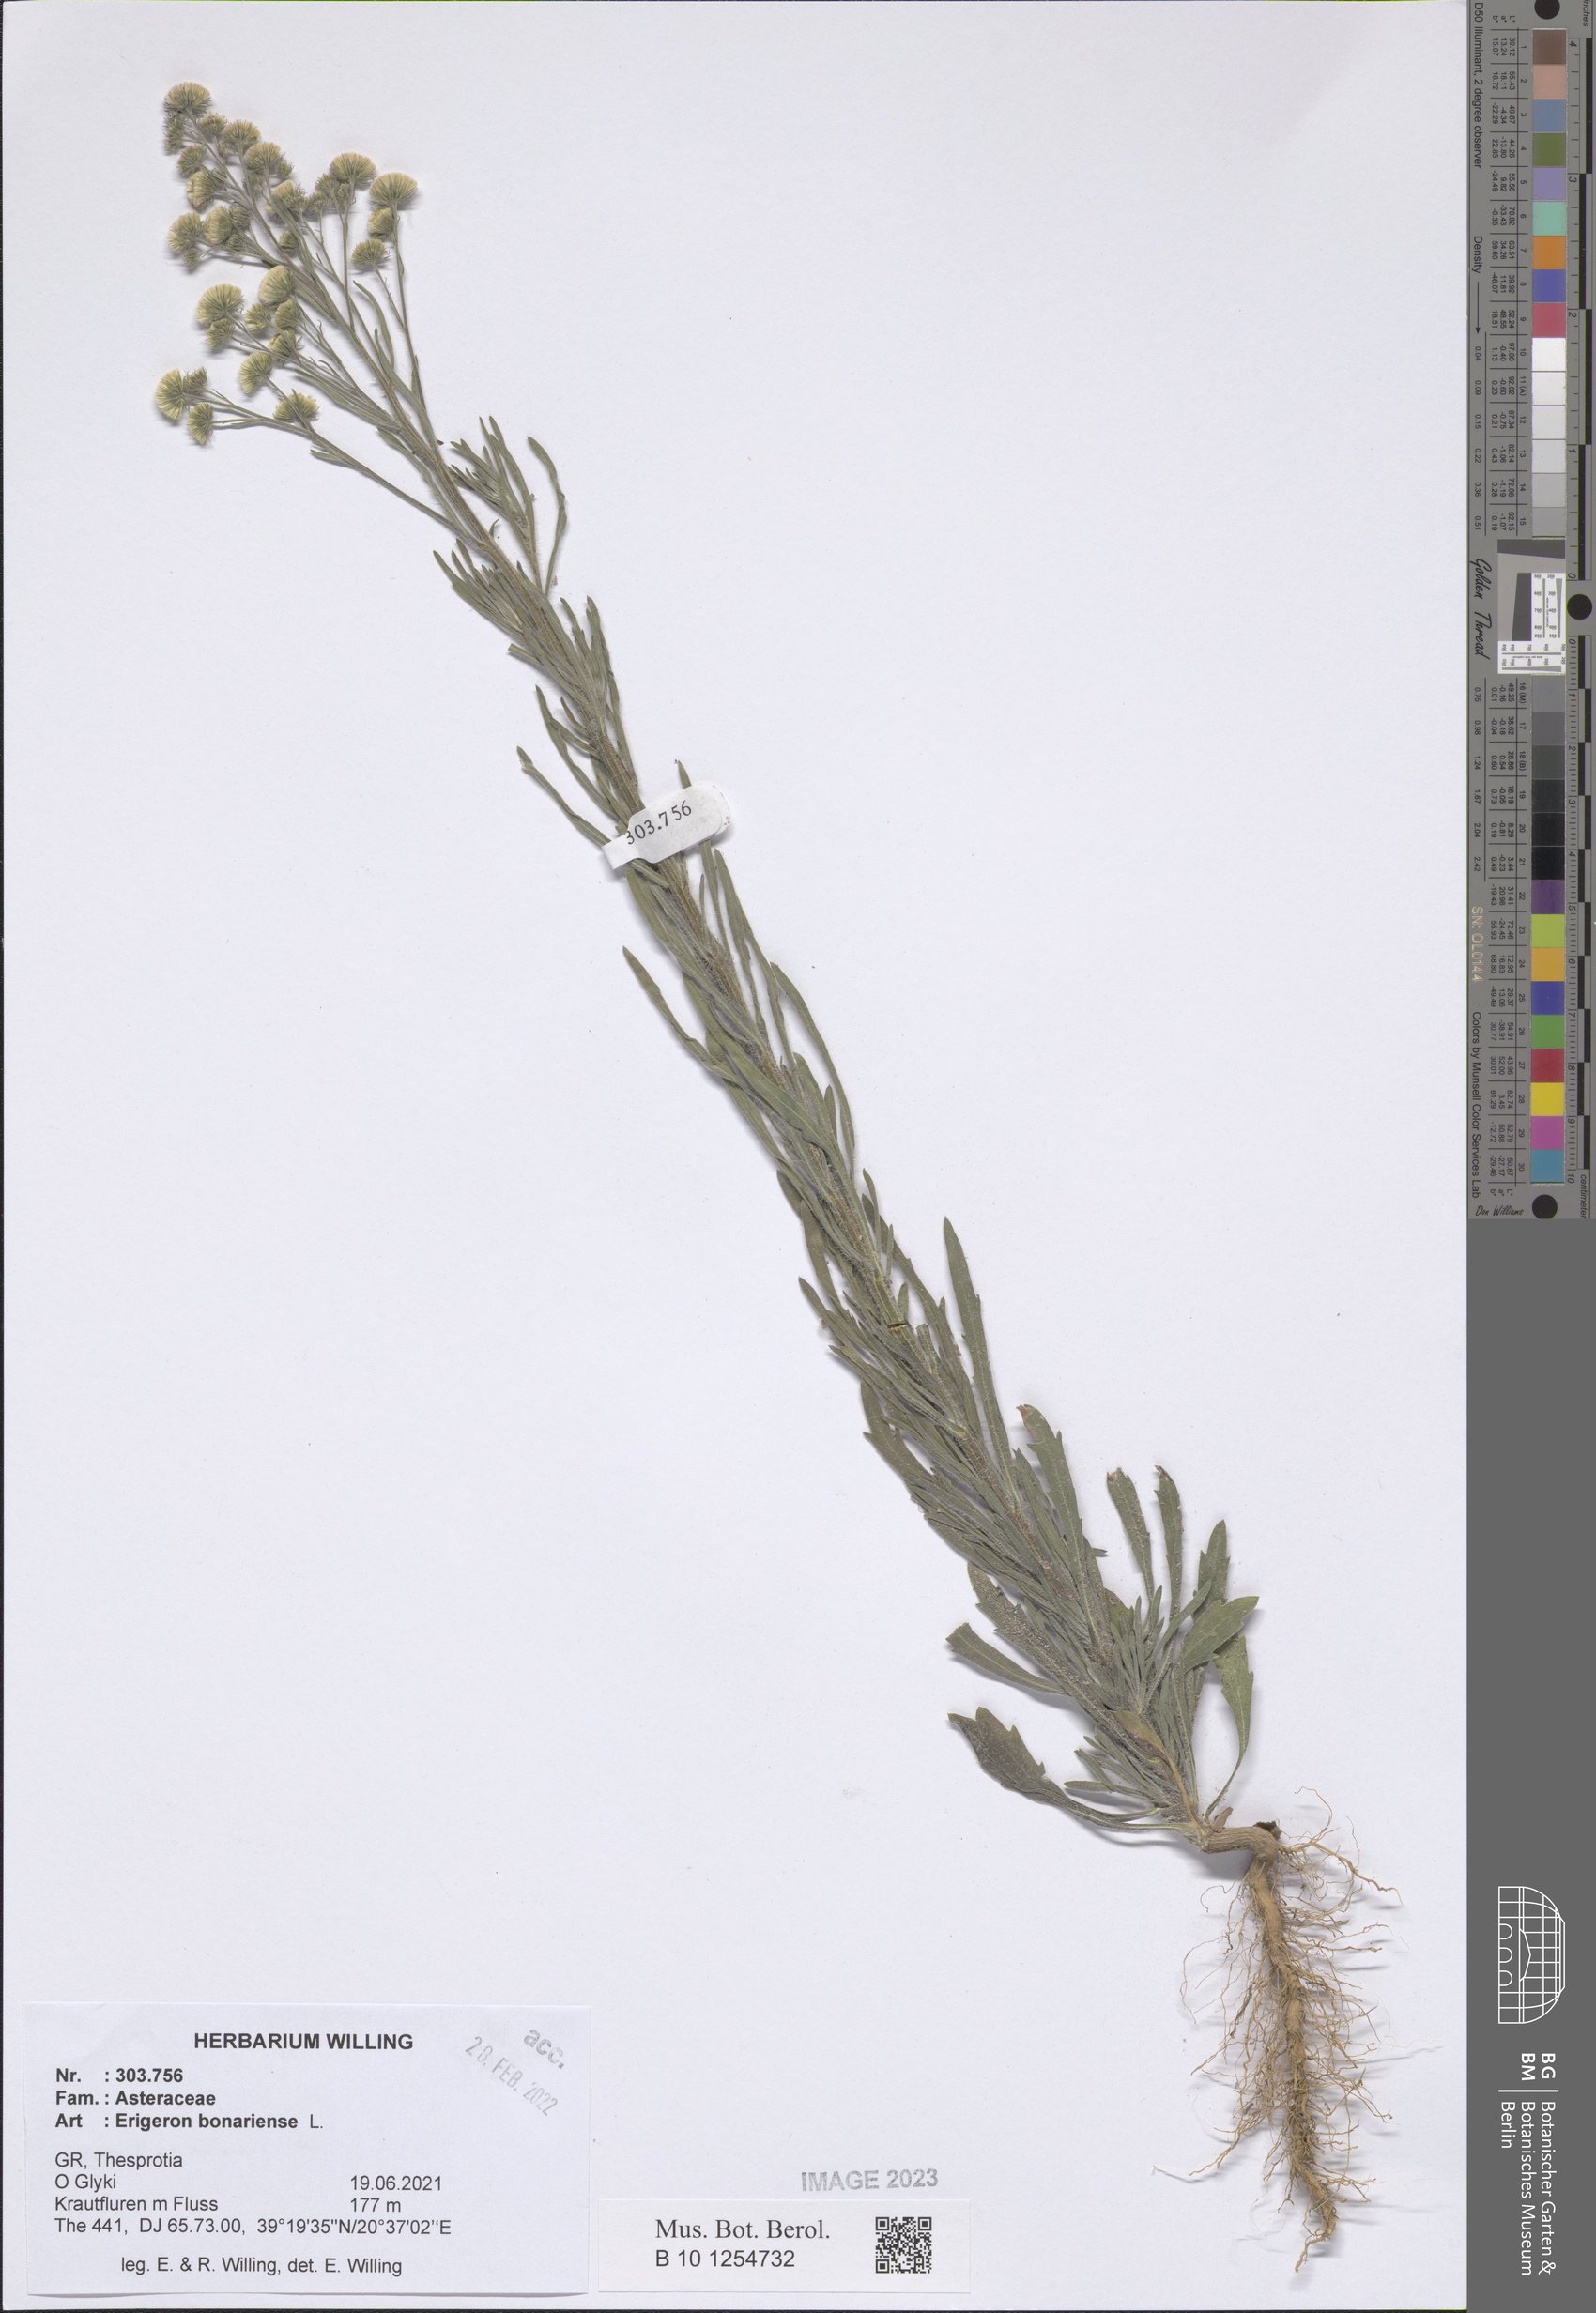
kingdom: Plantae
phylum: Tracheophyta
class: Magnoliopsida
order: Asterales
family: Asteraceae
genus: Erigeron
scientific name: Erigeron bonariensis
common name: Argentine fleabane
